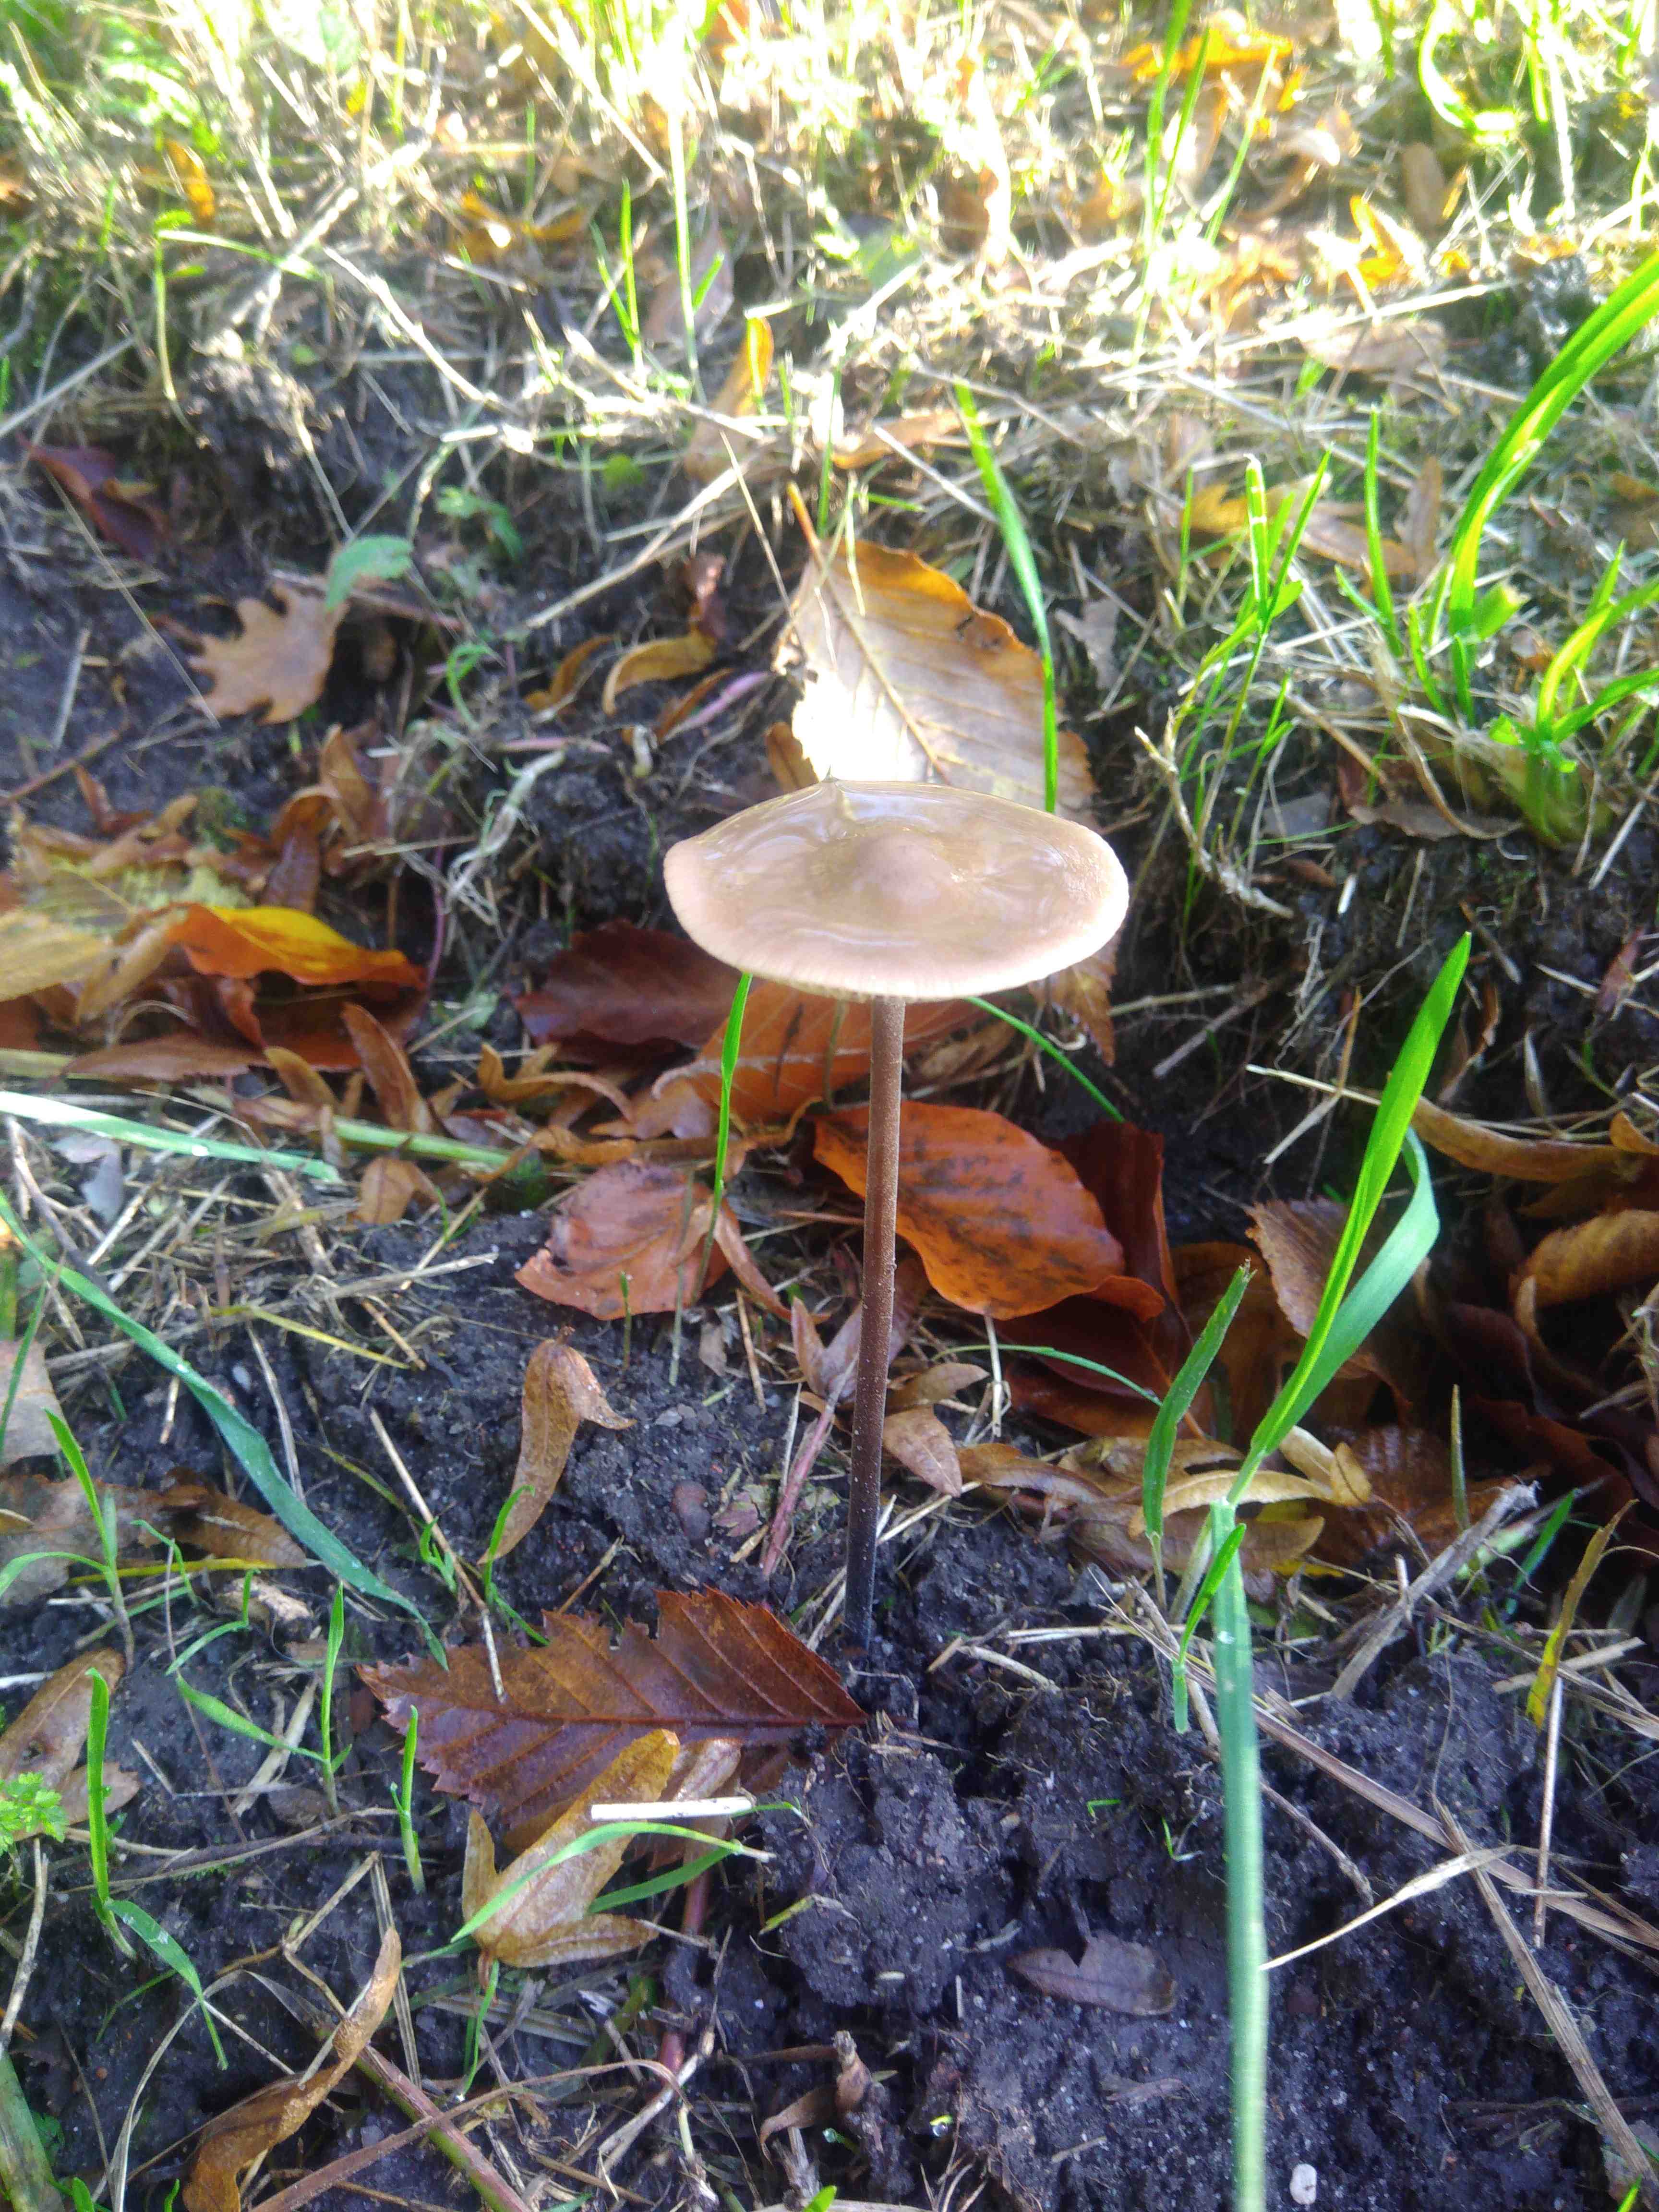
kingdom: Fungi
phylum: Basidiomycota
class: Agaricomycetes
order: Agaricales
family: Omphalotaceae
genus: Mycetinis
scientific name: Mycetinis alliaceus
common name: stor løghat
